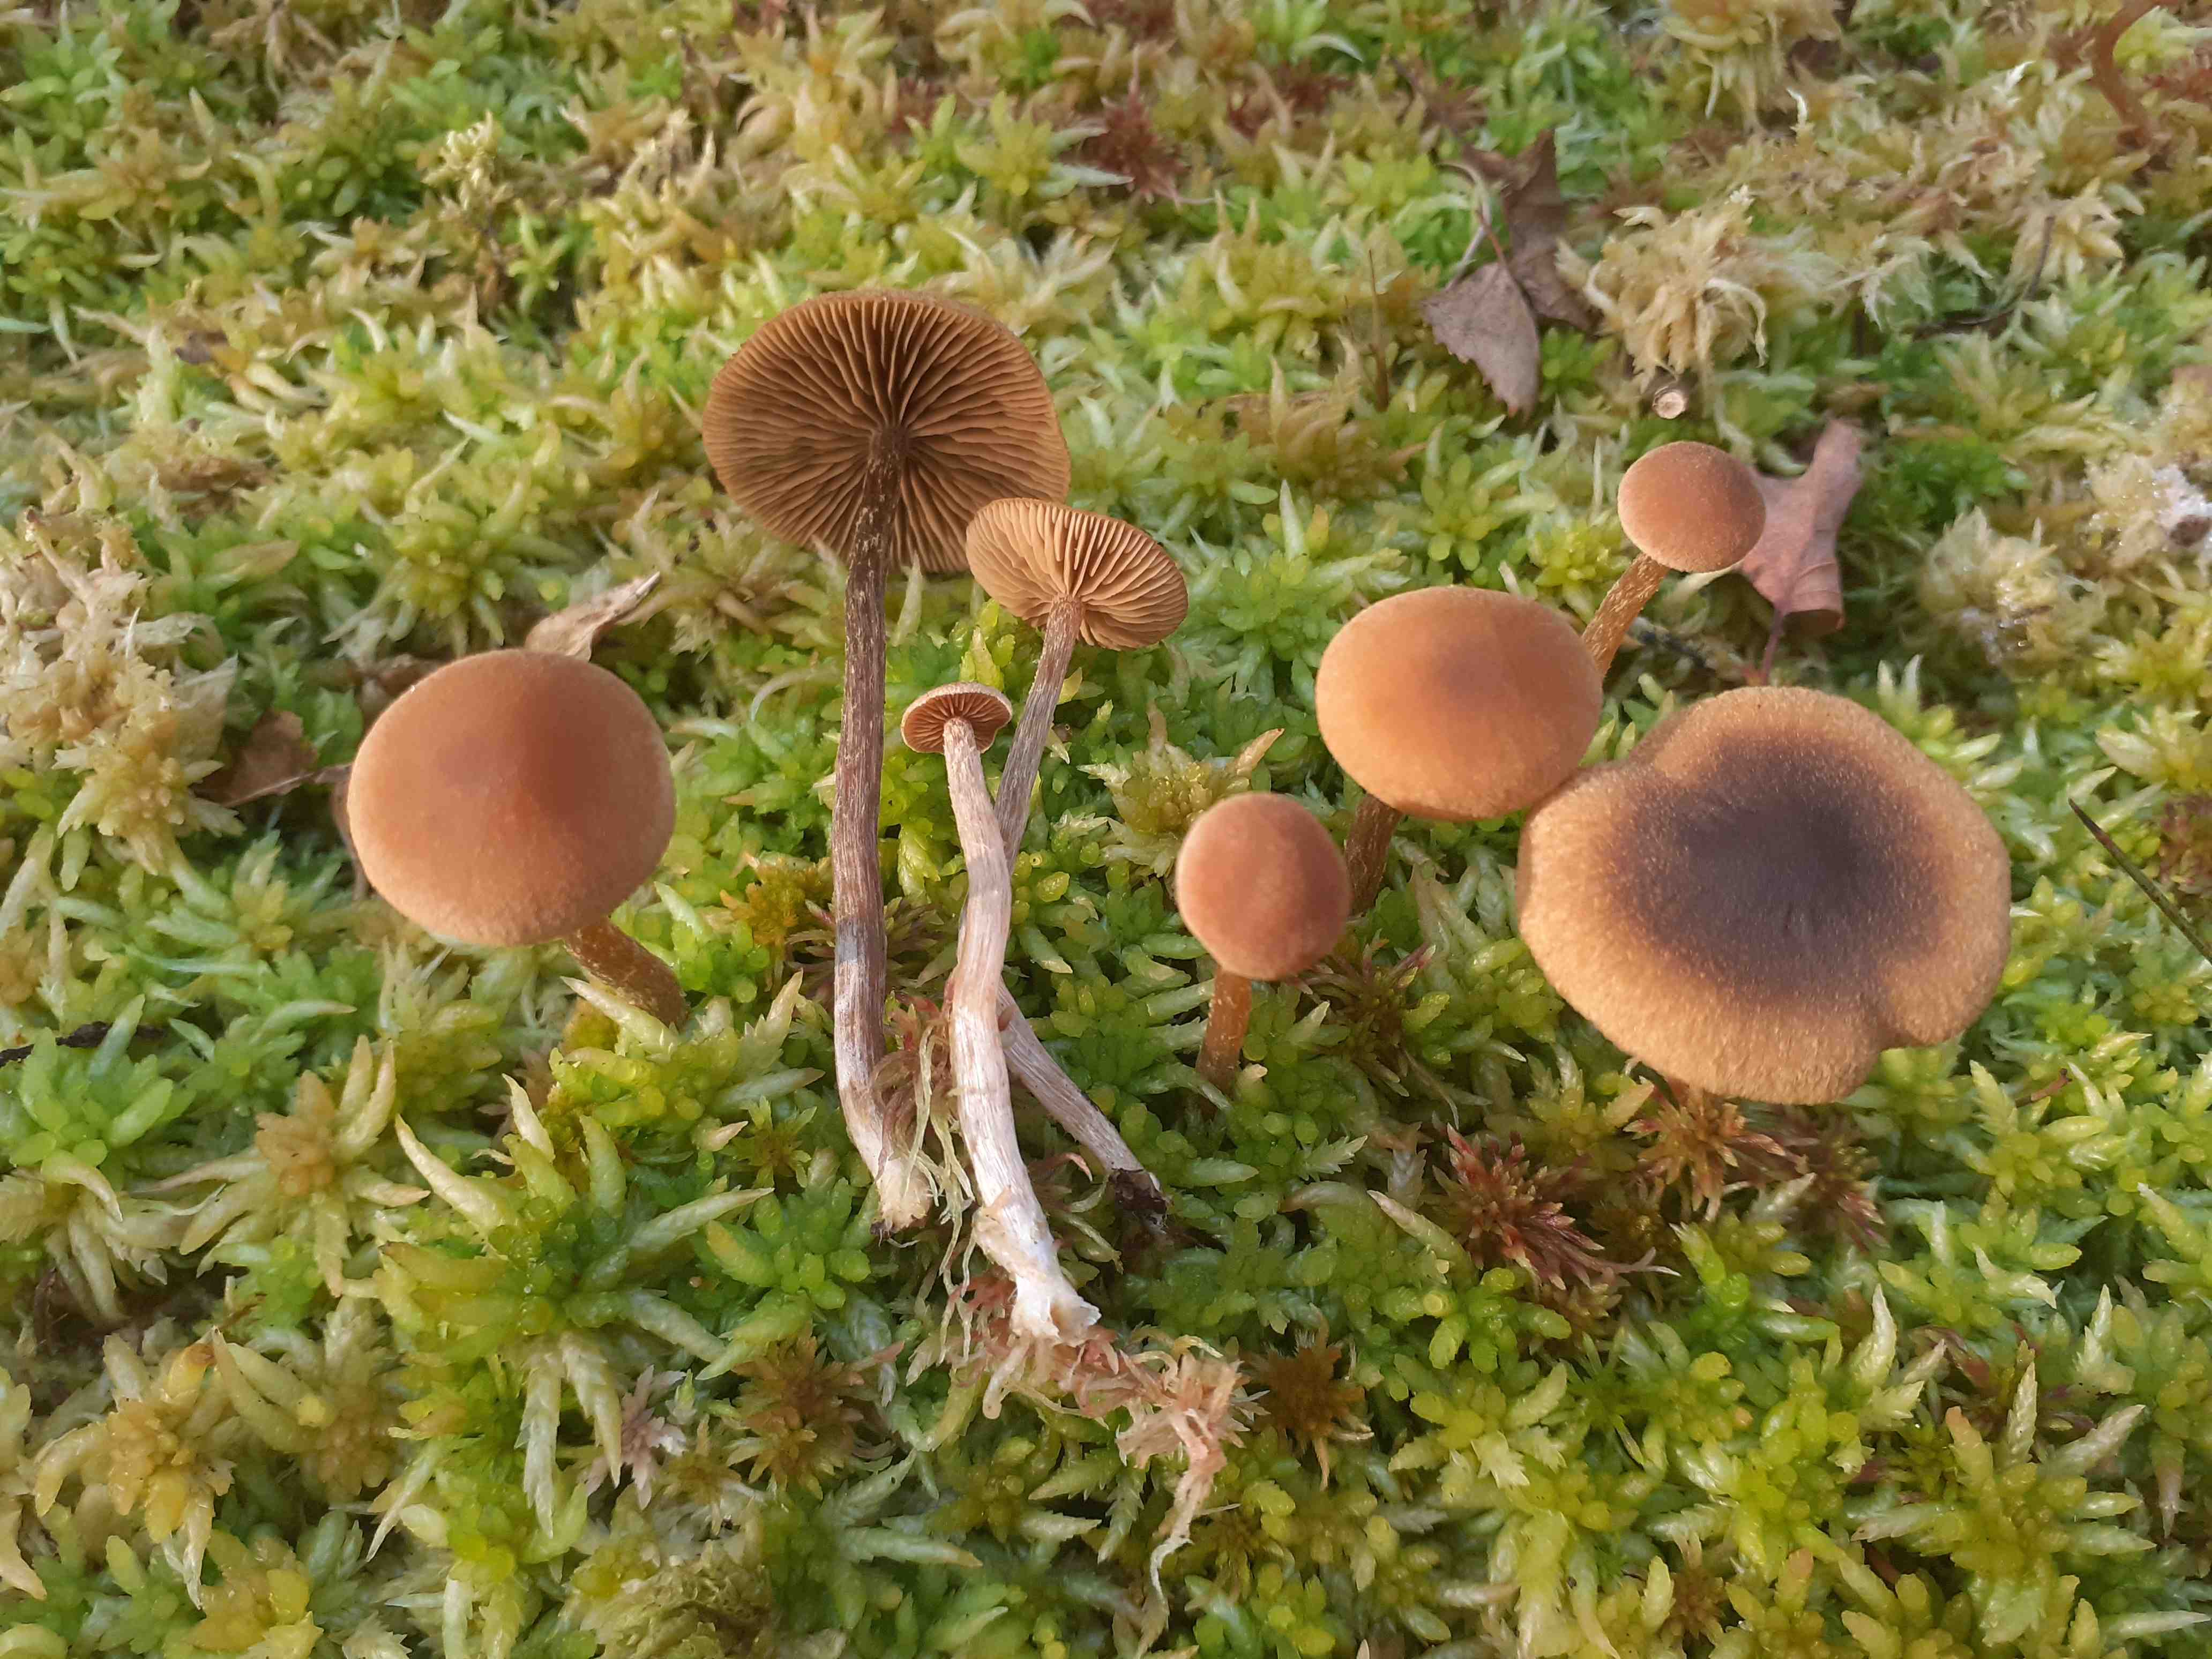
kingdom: Fungi
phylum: Basidiomycota
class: Agaricomycetes
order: Agaricales
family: Hymenogastraceae
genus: Naucoria
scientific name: Naucoria sphagneti
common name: lysrandet knaphat
